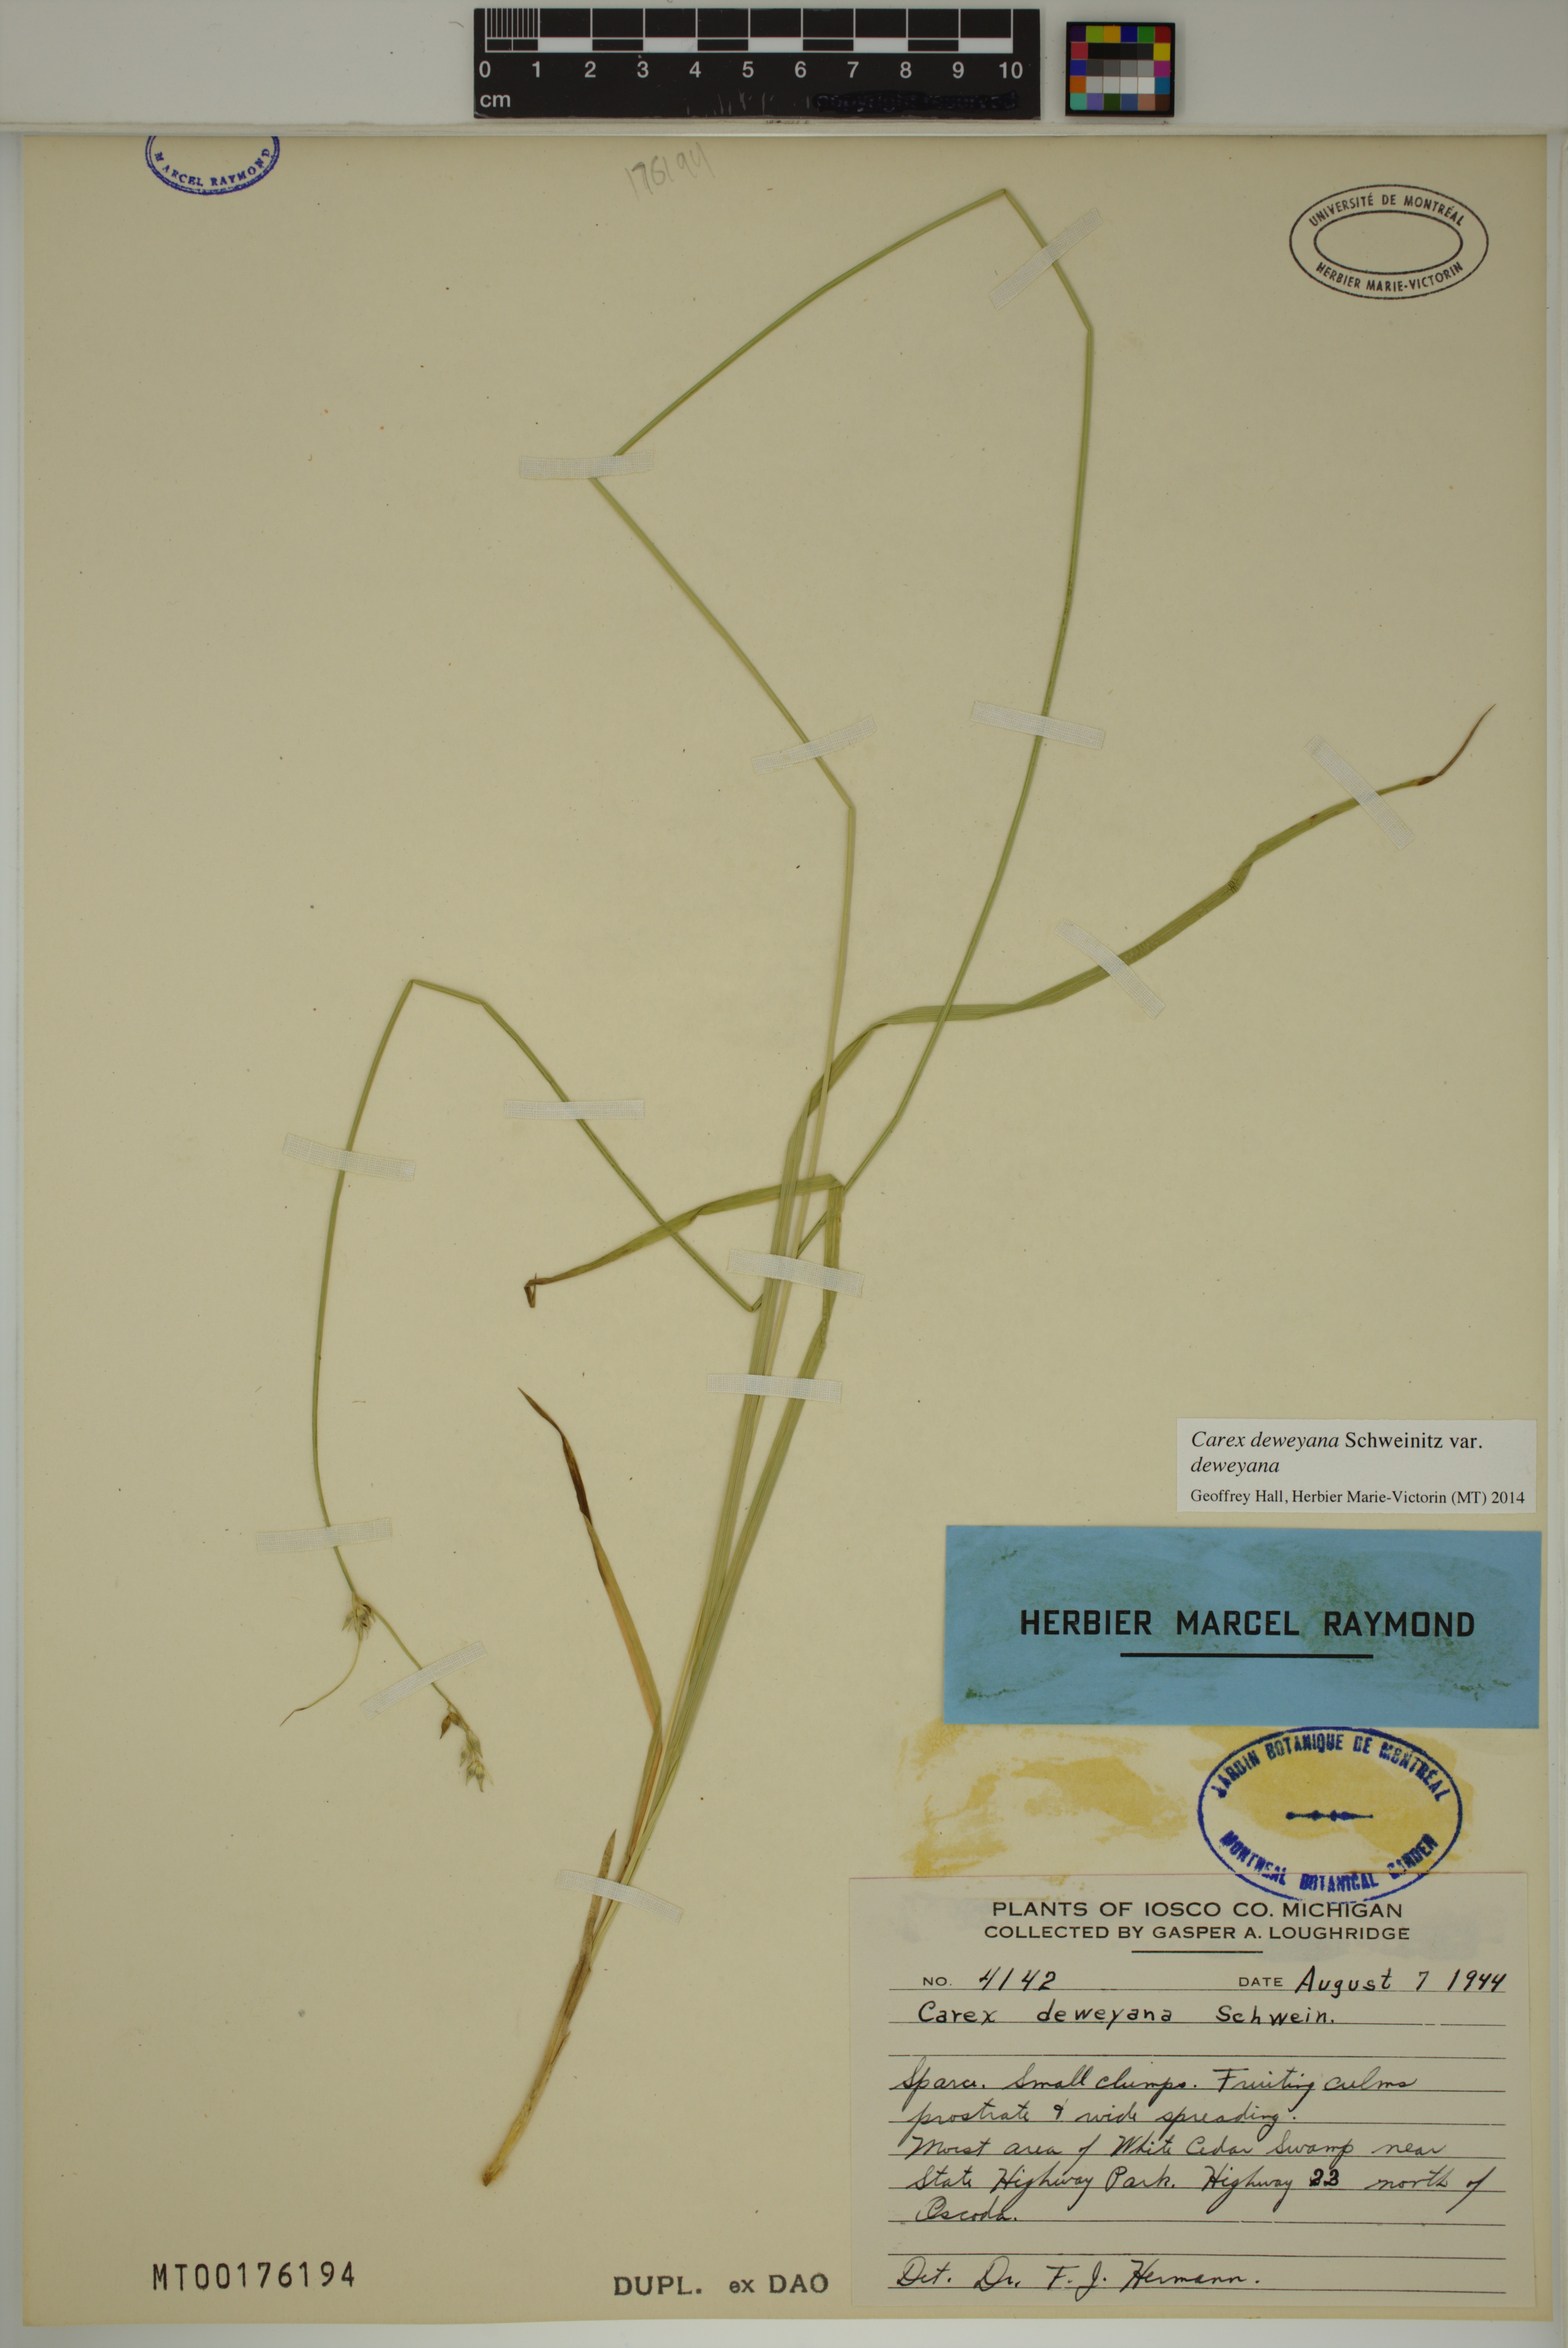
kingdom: Plantae
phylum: Tracheophyta
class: Liliopsida
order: Poales
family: Cyperaceae
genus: Carex
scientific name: Carex deweyana
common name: Dewey's sedge
